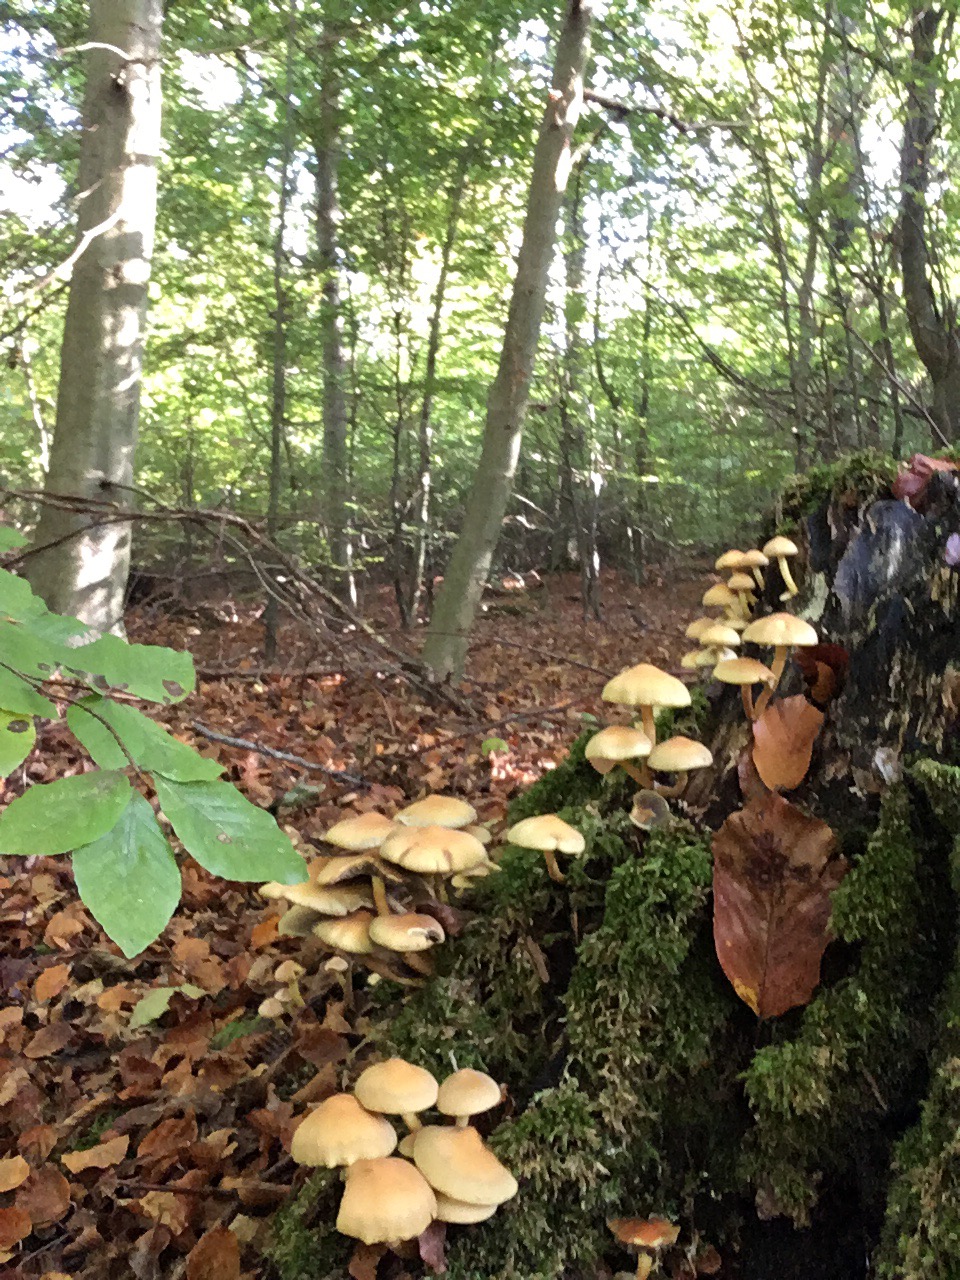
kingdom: Fungi
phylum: Basidiomycota
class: Agaricomycetes
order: Agaricales
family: Strophariaceae
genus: Hypholoma
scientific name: Hypholoma fasciculare
